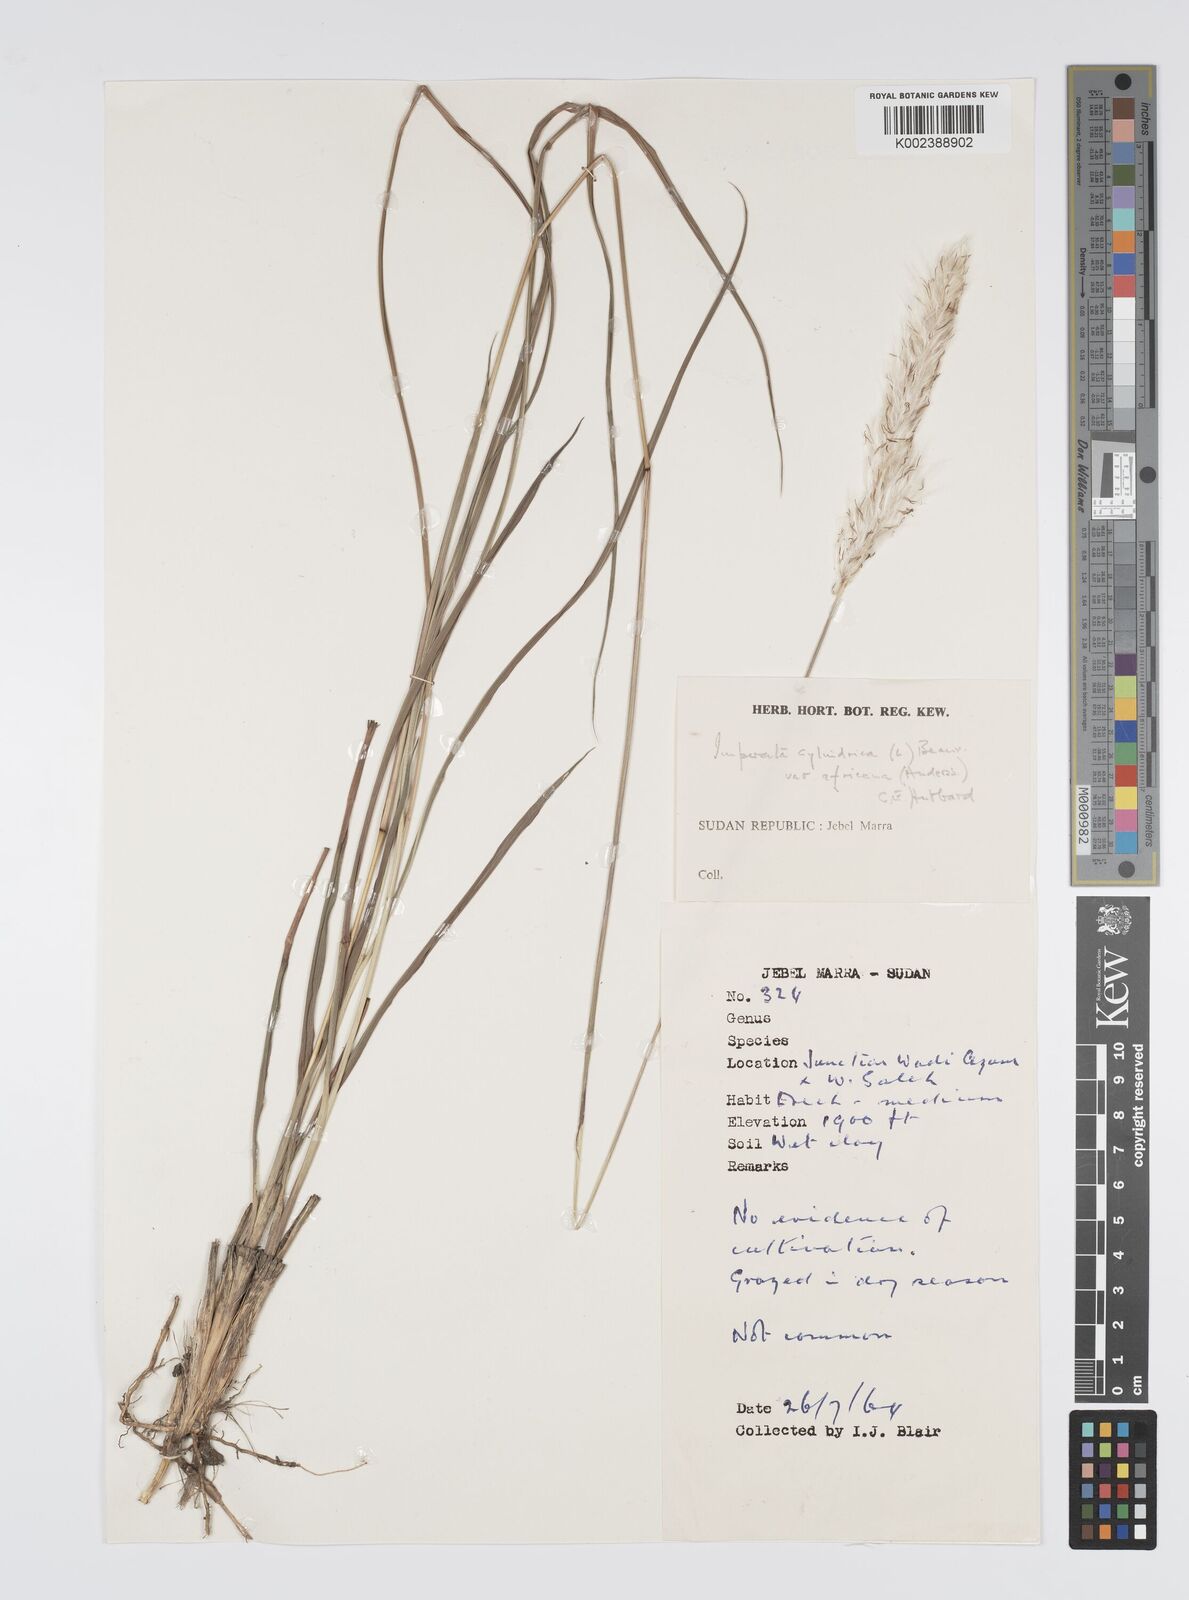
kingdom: Plantae
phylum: Tracheophyta
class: Liliopsida
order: Poales
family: Poaceae
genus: Imperata
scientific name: Imperata cylindrica
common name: Cogongrass
